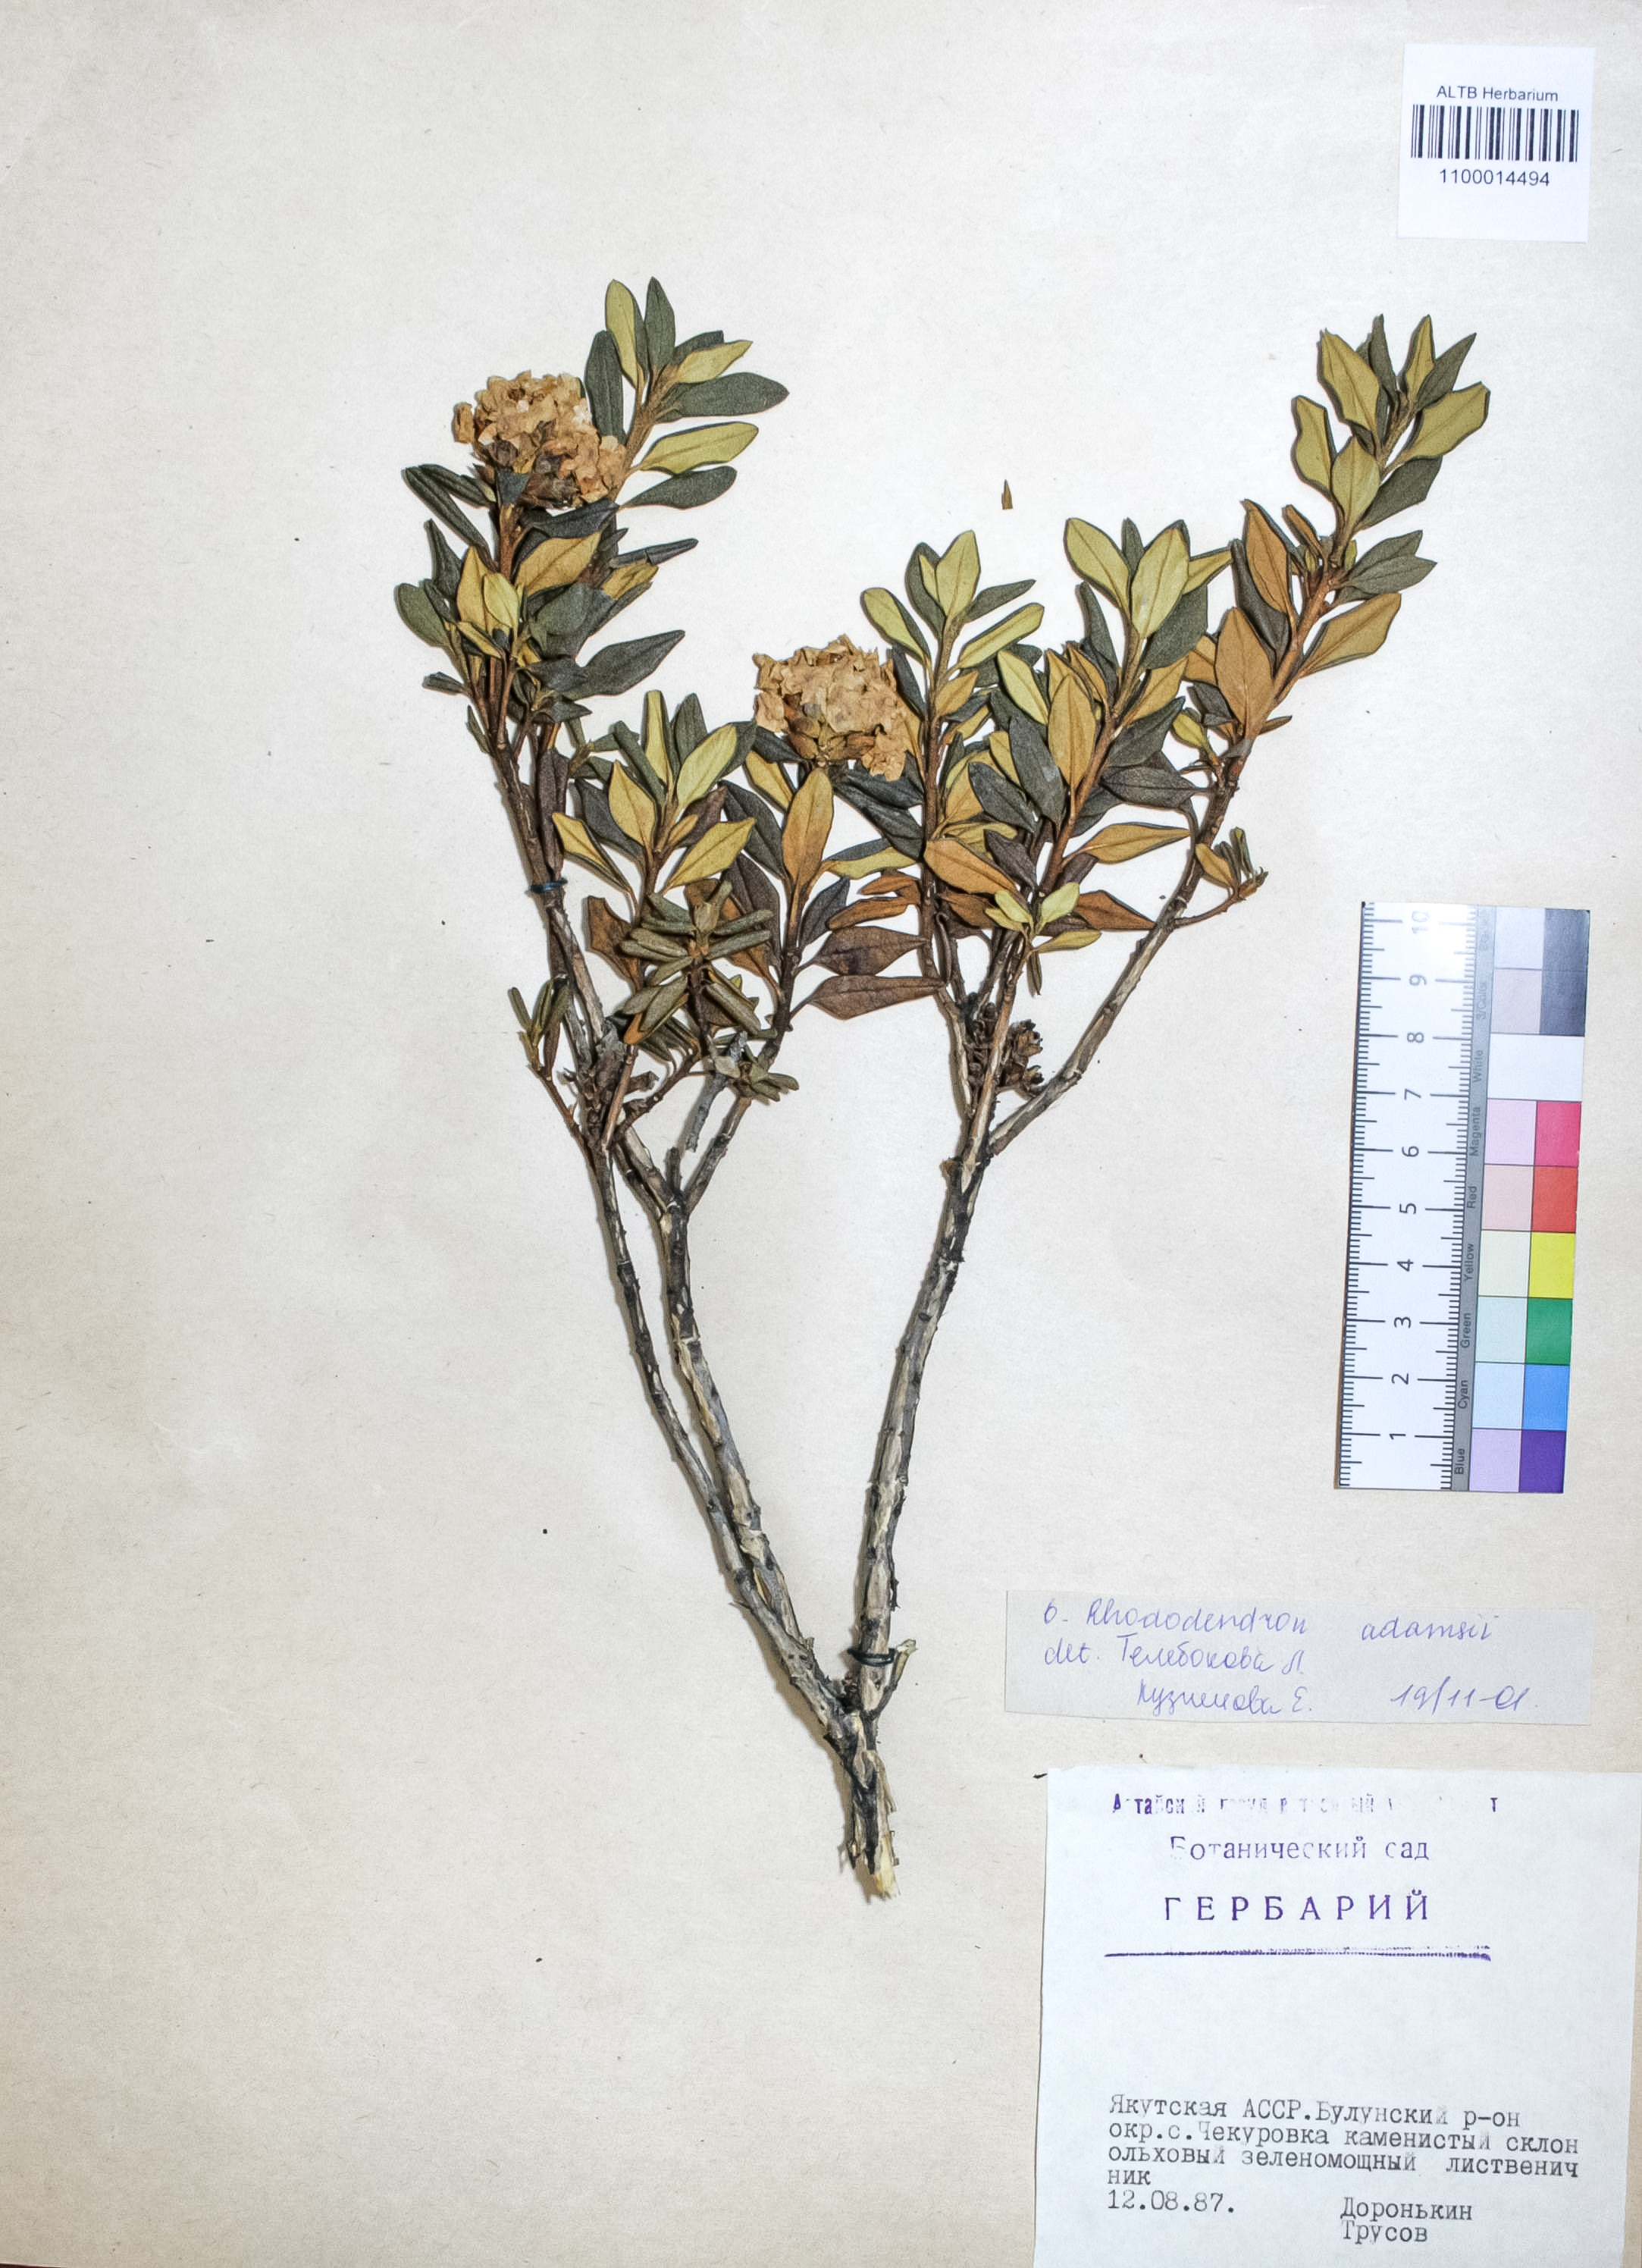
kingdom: Plantae
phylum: Tracheophyta
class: Magnoliopsida
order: Ericales
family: Ericaceae
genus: Rhododendron
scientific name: Rhododendron adamsii
